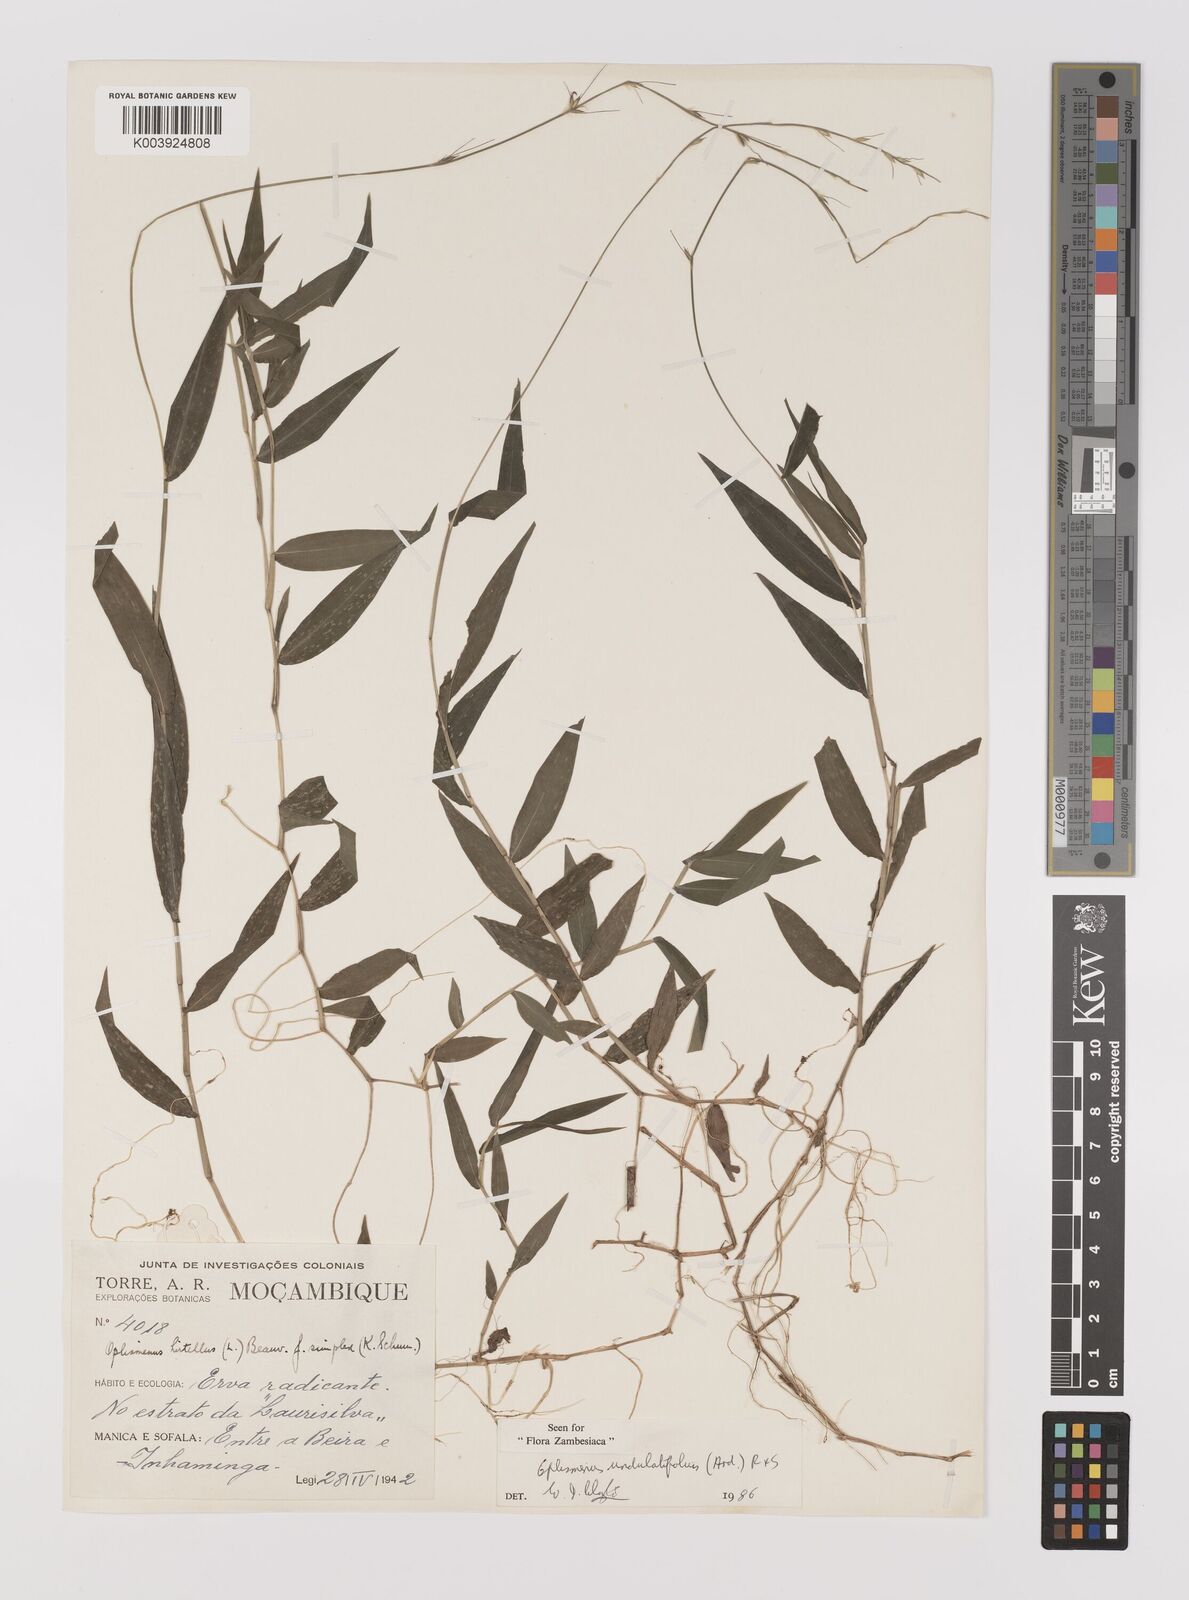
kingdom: Plantae
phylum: Tracheophyta
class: Liliopsida
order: Poales
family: Poaceae
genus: Oplismenus
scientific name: Oplismenus undulatifolius
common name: Wavyleaf basketgrass
